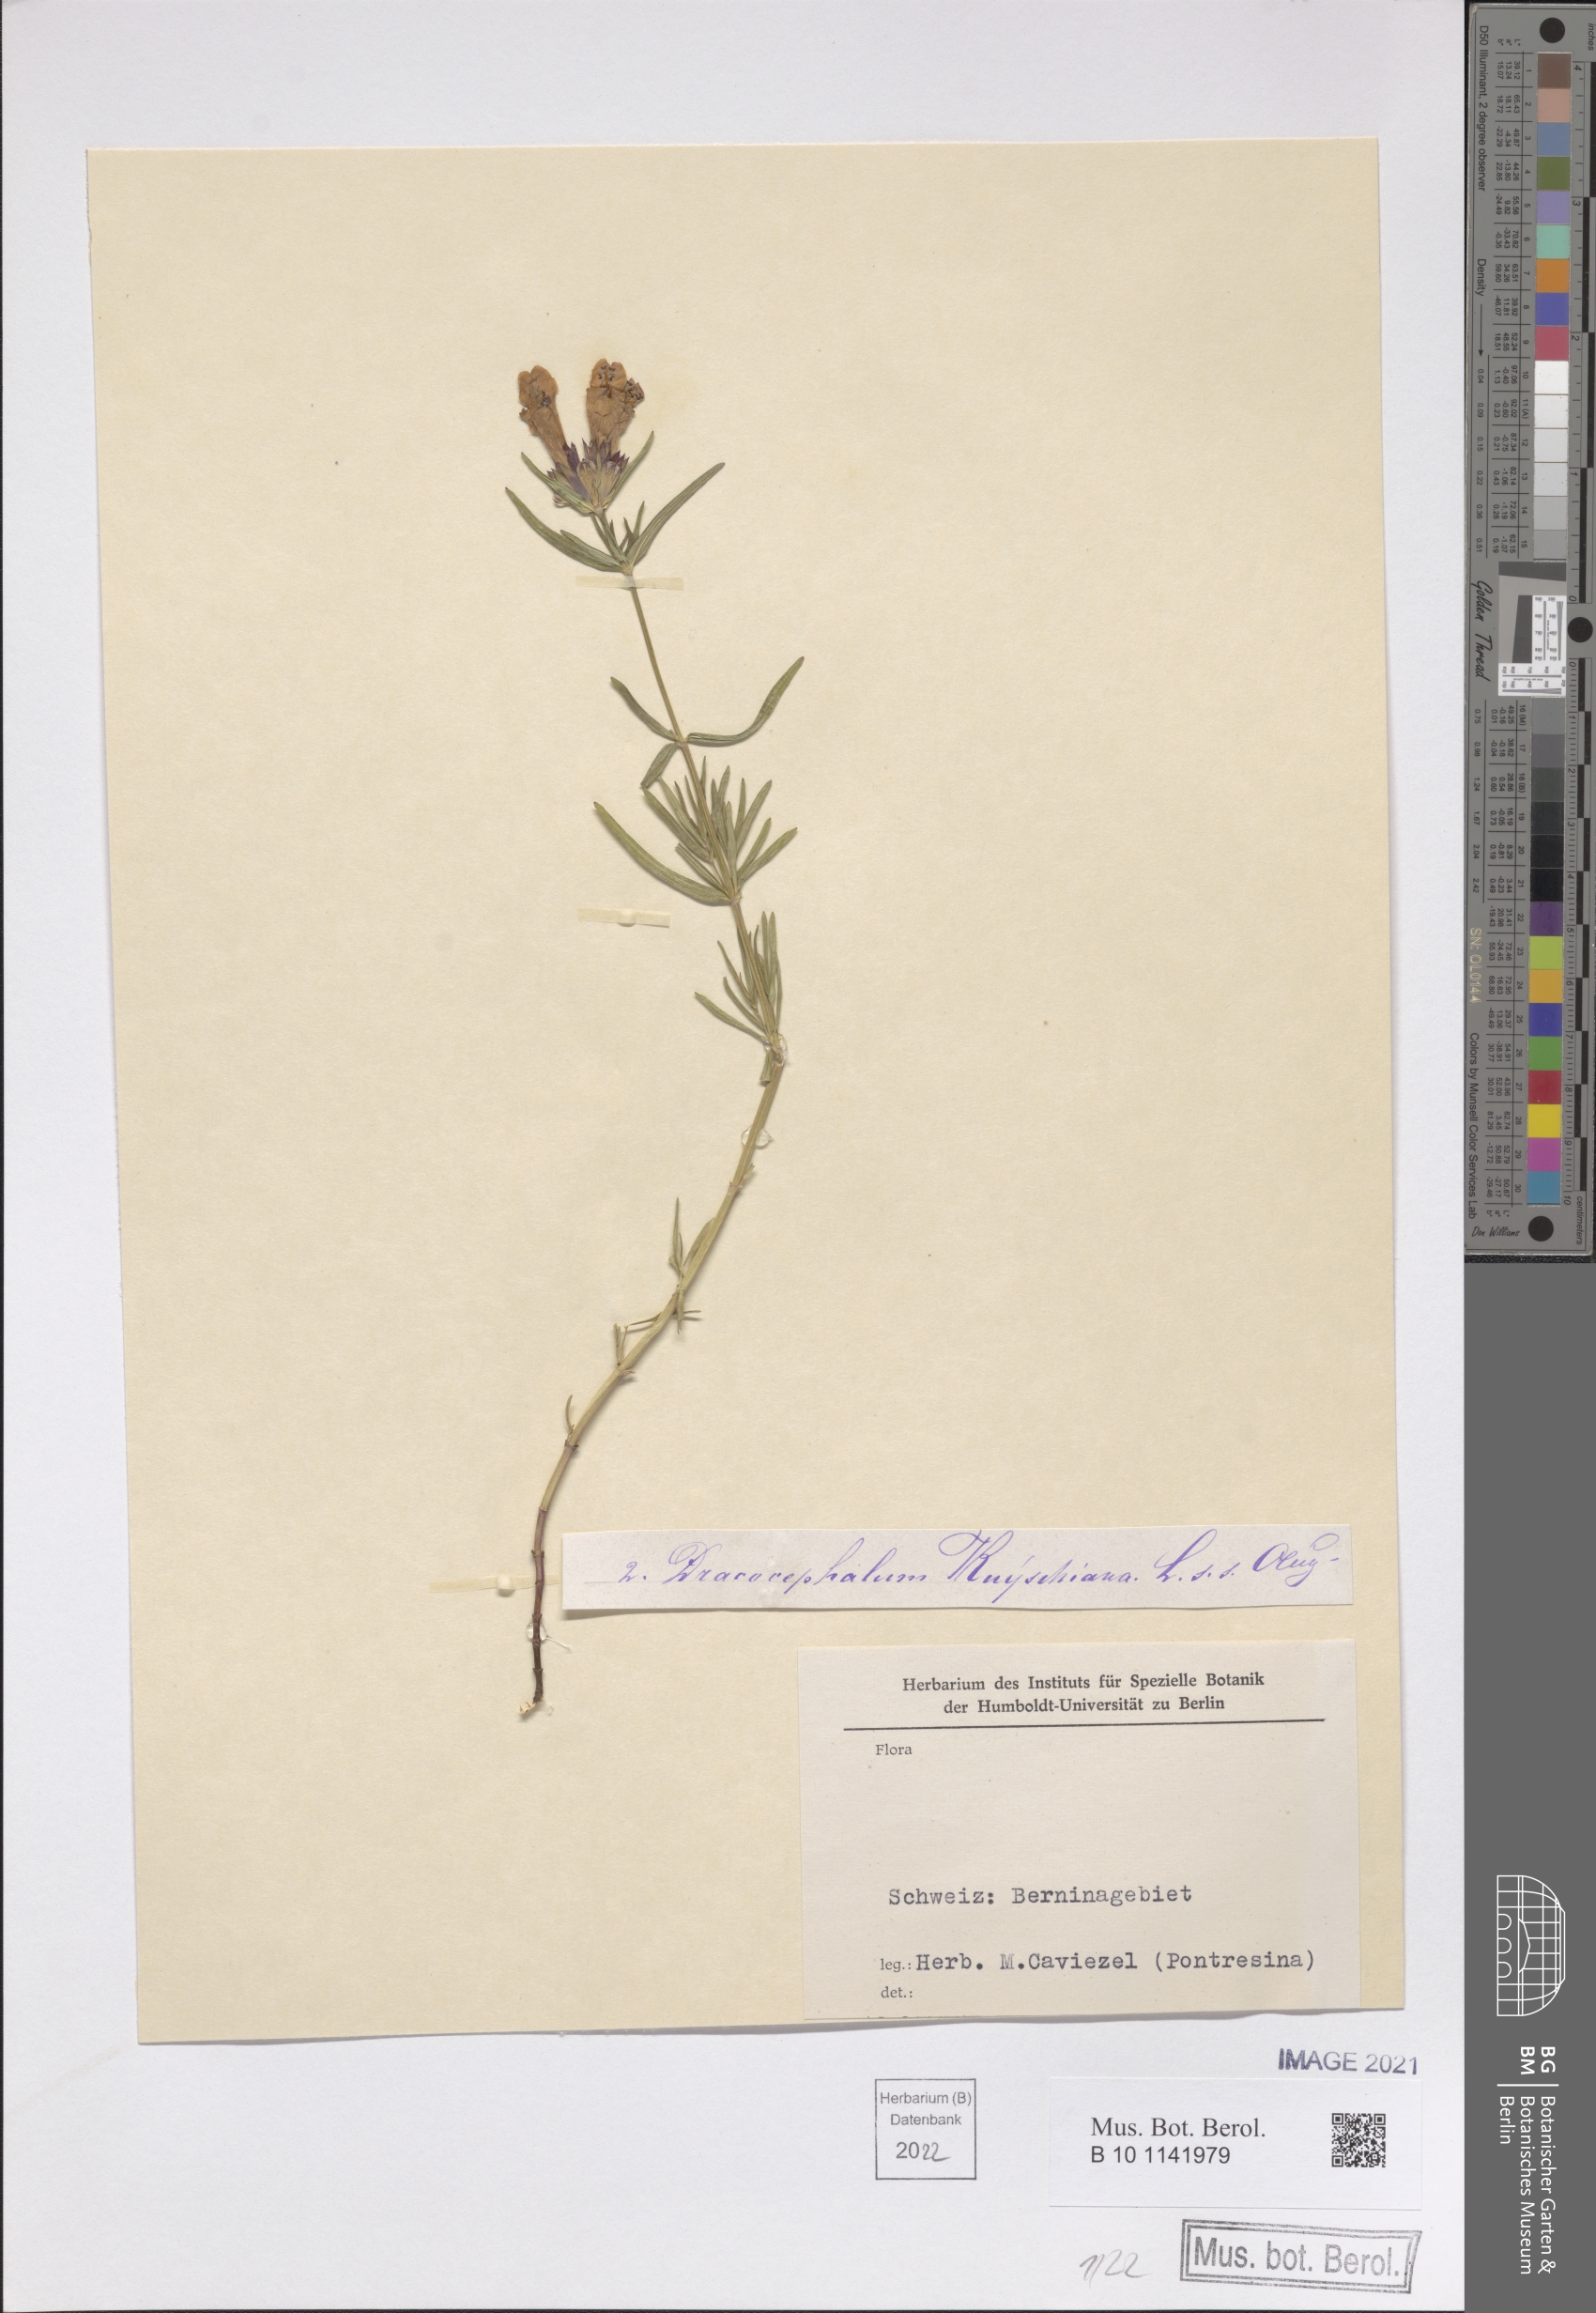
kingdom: Plantae
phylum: Tracheophyta
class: Magnoliopsida
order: Lamiales
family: Lamiaceae
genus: Dracocephalum
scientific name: Dracocephalum ruyschiana
